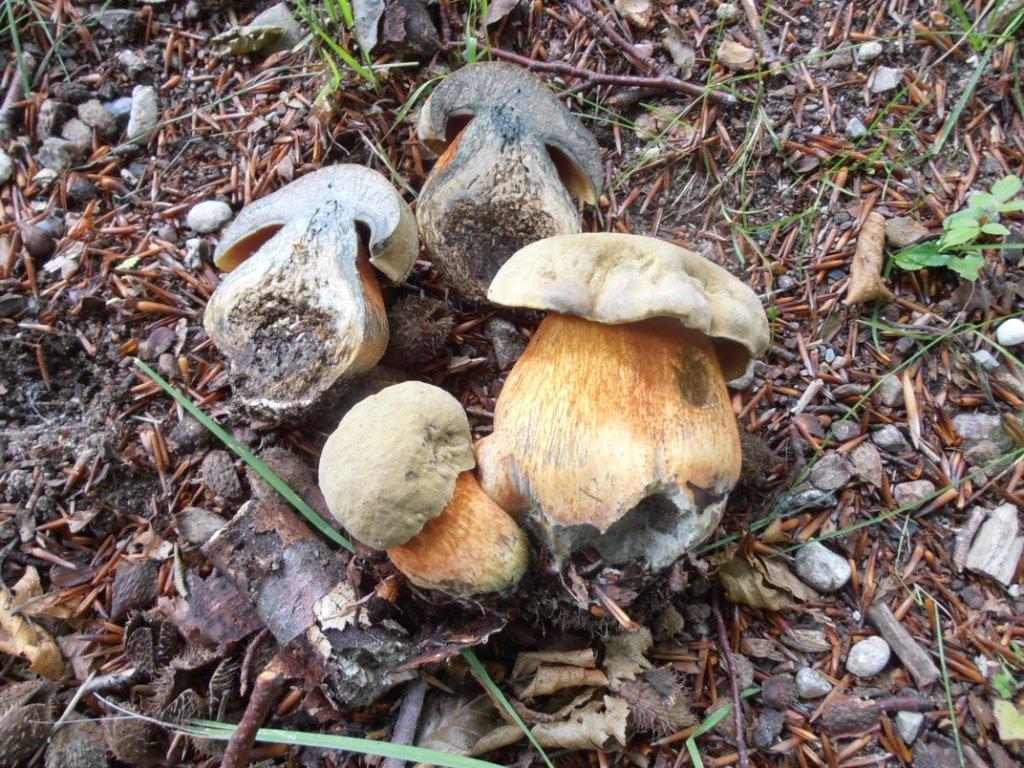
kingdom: Fungi
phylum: Basidiomycota
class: Agaricomycetes
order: Boletales
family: Boletaceae
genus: Suillellus
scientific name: Suillellus luridus
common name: netstokket indigorørhat
